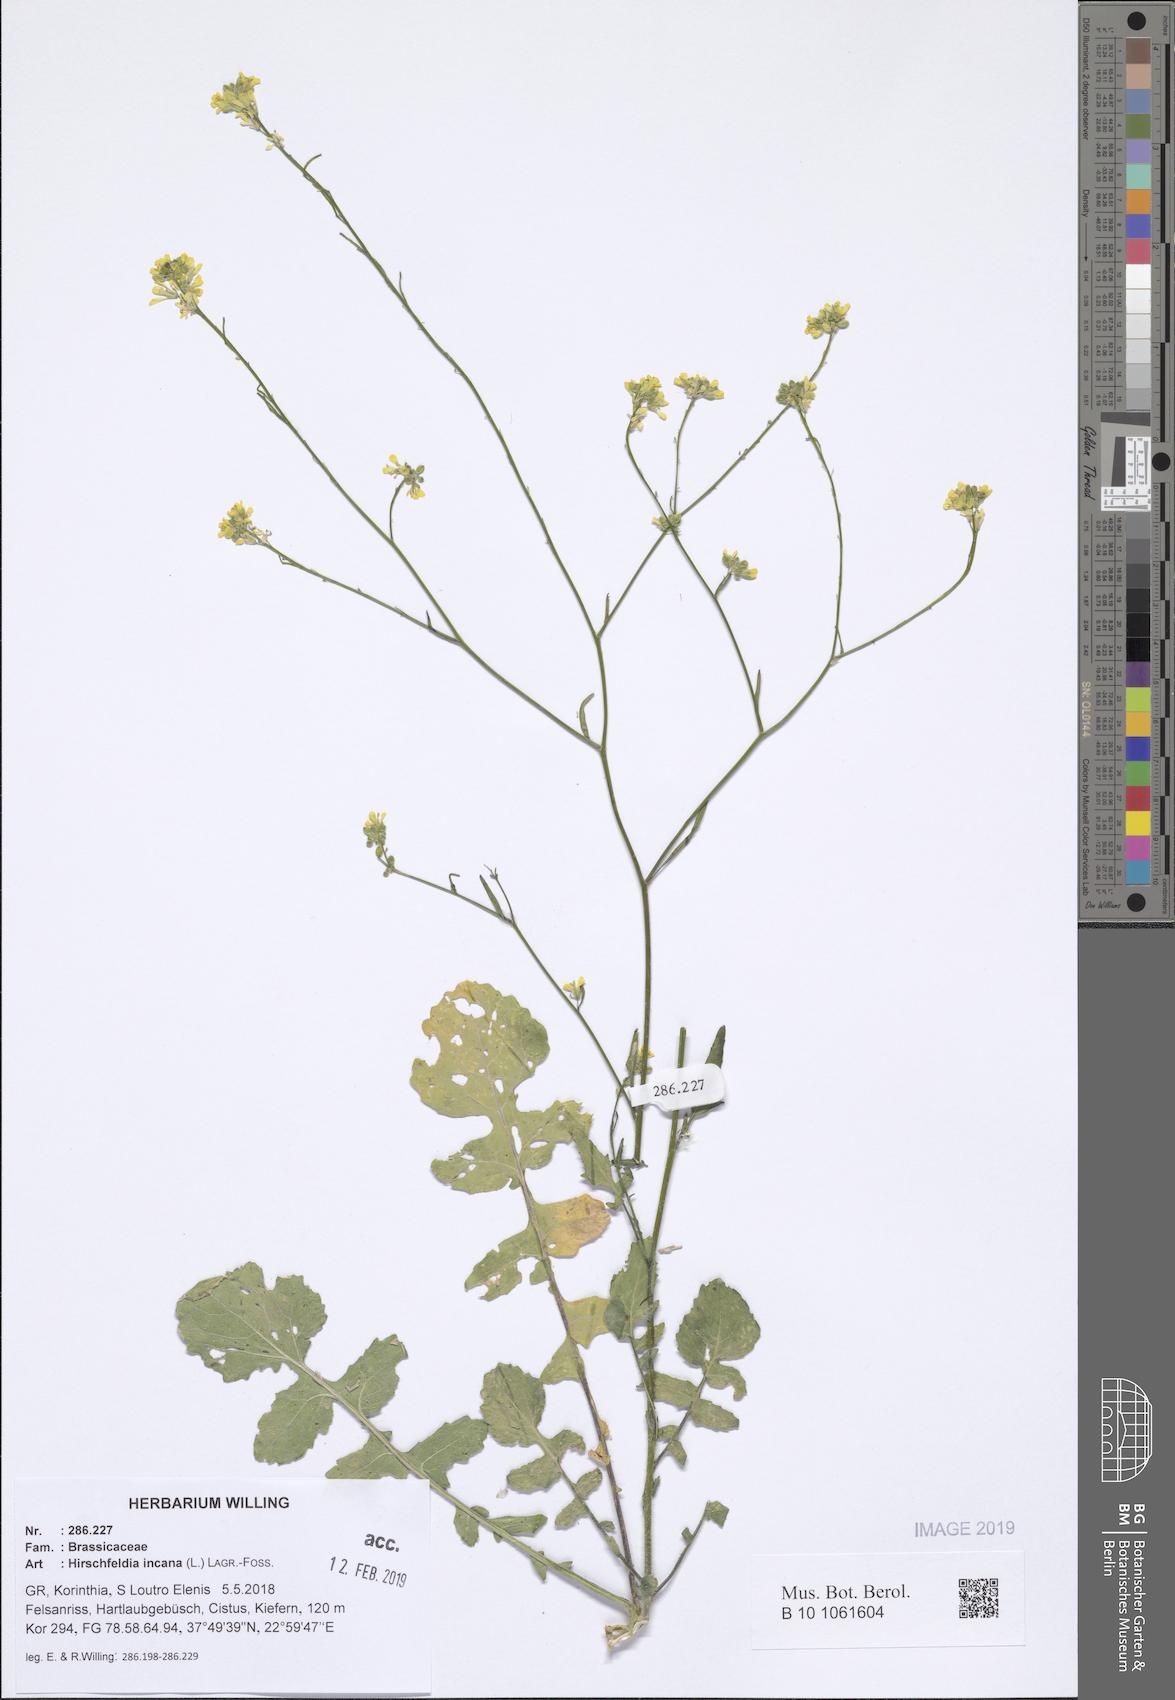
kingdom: Plantae
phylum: Tracheophyta
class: Magnoliopsida
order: Brassicales
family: Brassicaceae
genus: Hirschfeldia
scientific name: Hirschfeldia incana
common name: Hoary mustard
